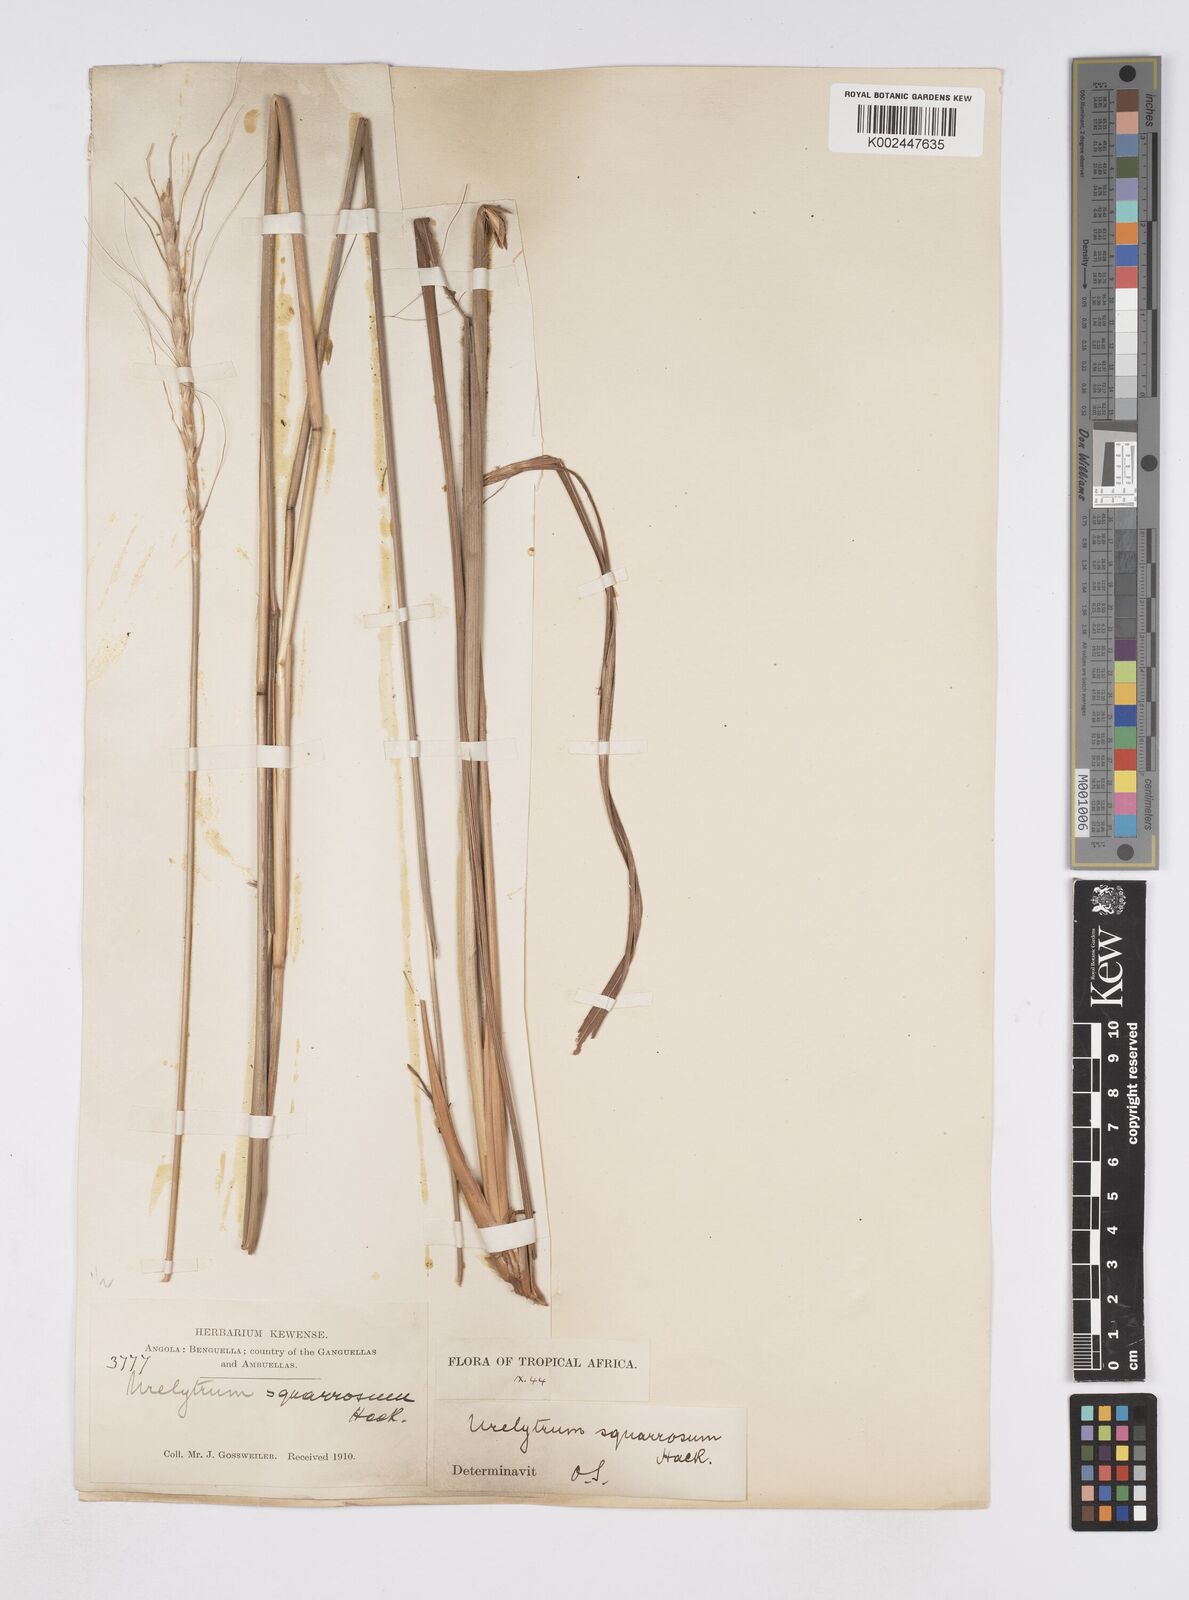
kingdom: Plantae
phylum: Tracheophyta
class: Liliopsida
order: Poales
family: Poaceae
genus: Urelytrum
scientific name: Urelytrum agropyroides
